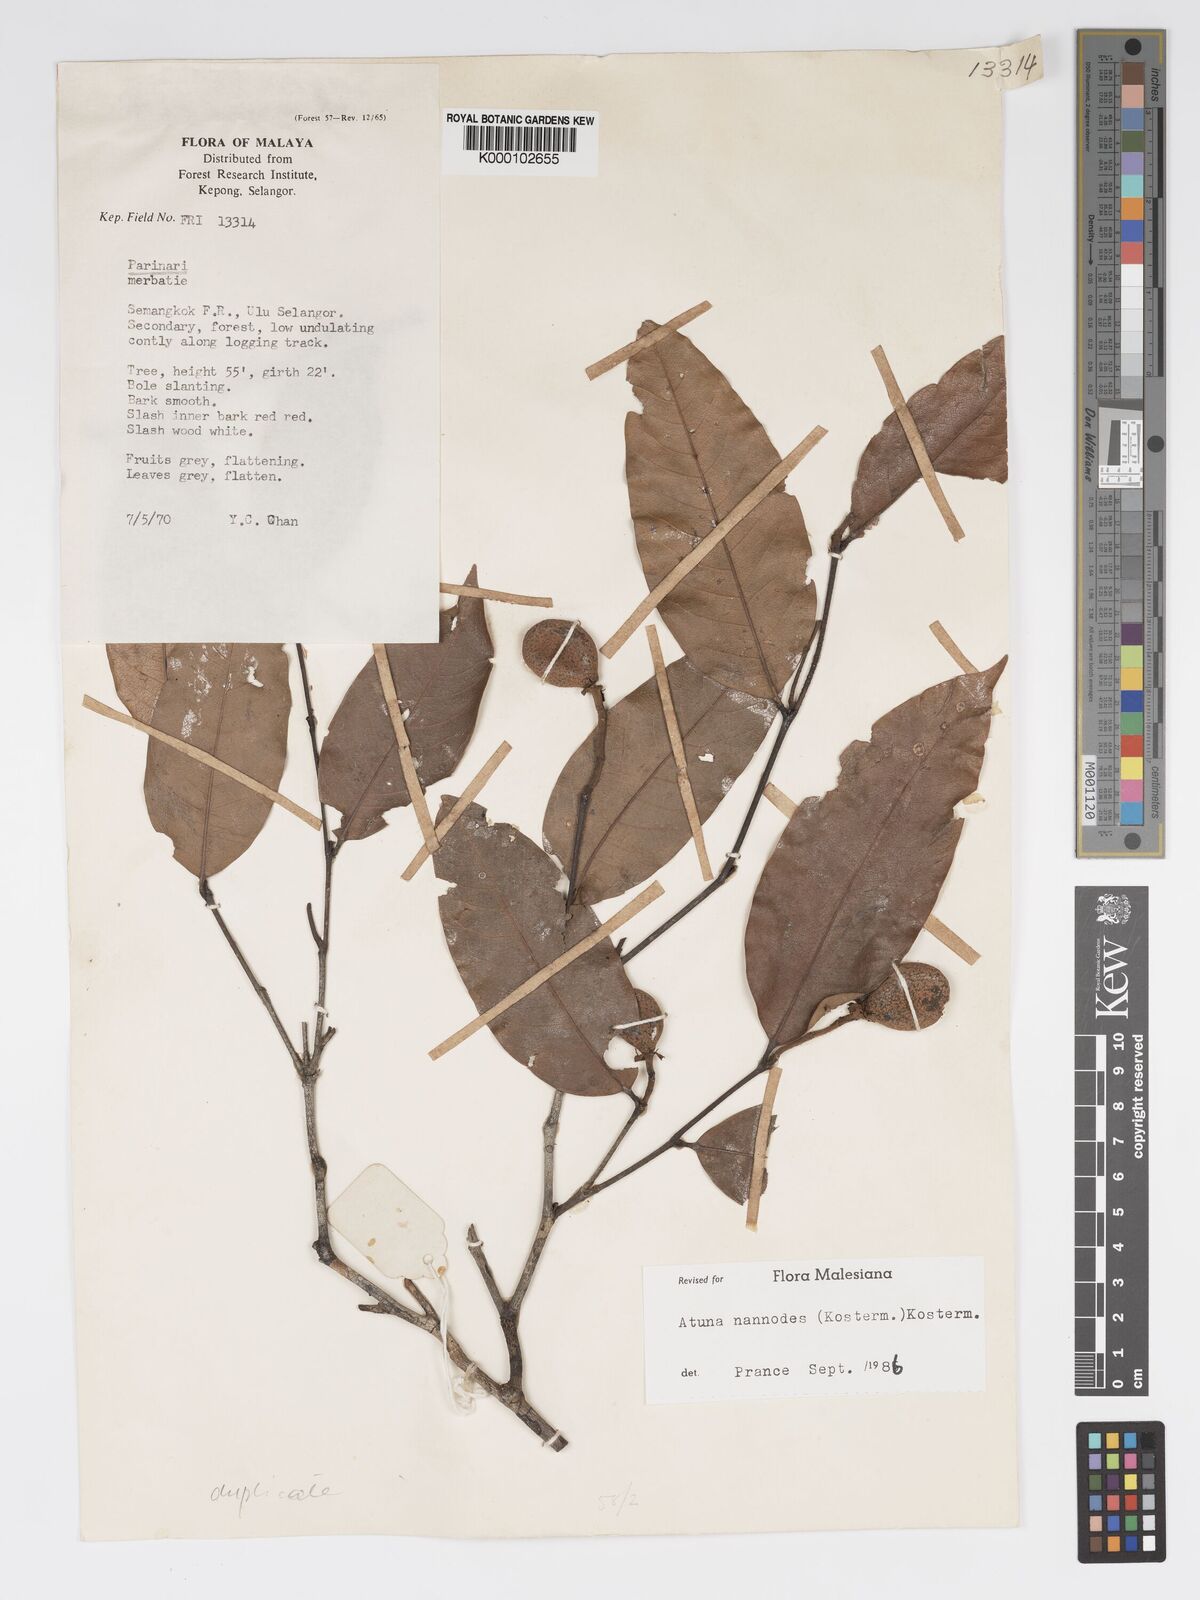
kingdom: Plantae
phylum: Tracheophyta
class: Magnoliopsida
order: Malpighiales
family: Chrysobalanaceae
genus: Atuna
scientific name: Atuna nannodes
